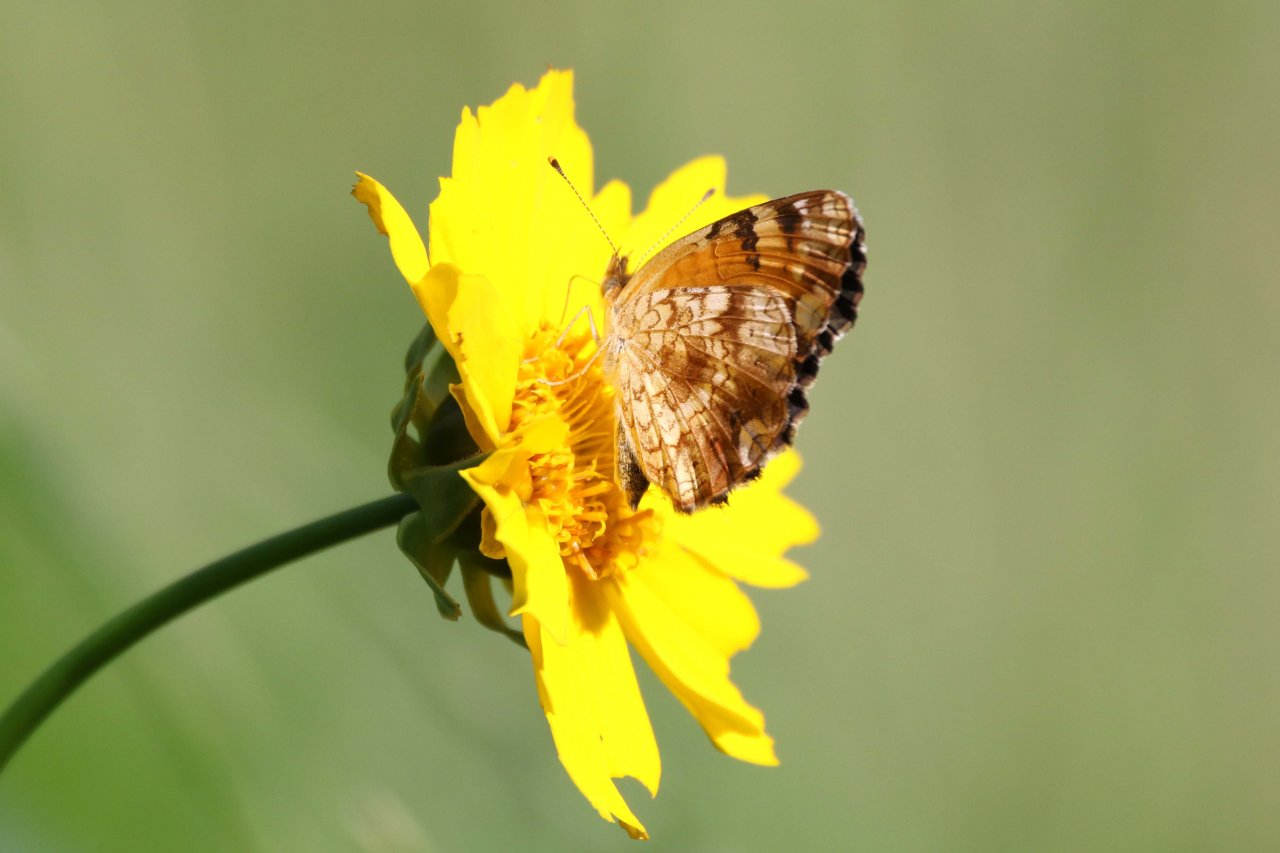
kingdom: Animalia
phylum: Arthropoda
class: Insecta
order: Lepidoptera
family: Nymphalidae
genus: Phyciodes
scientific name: Phyciodes tharos
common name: Northern Crescent
